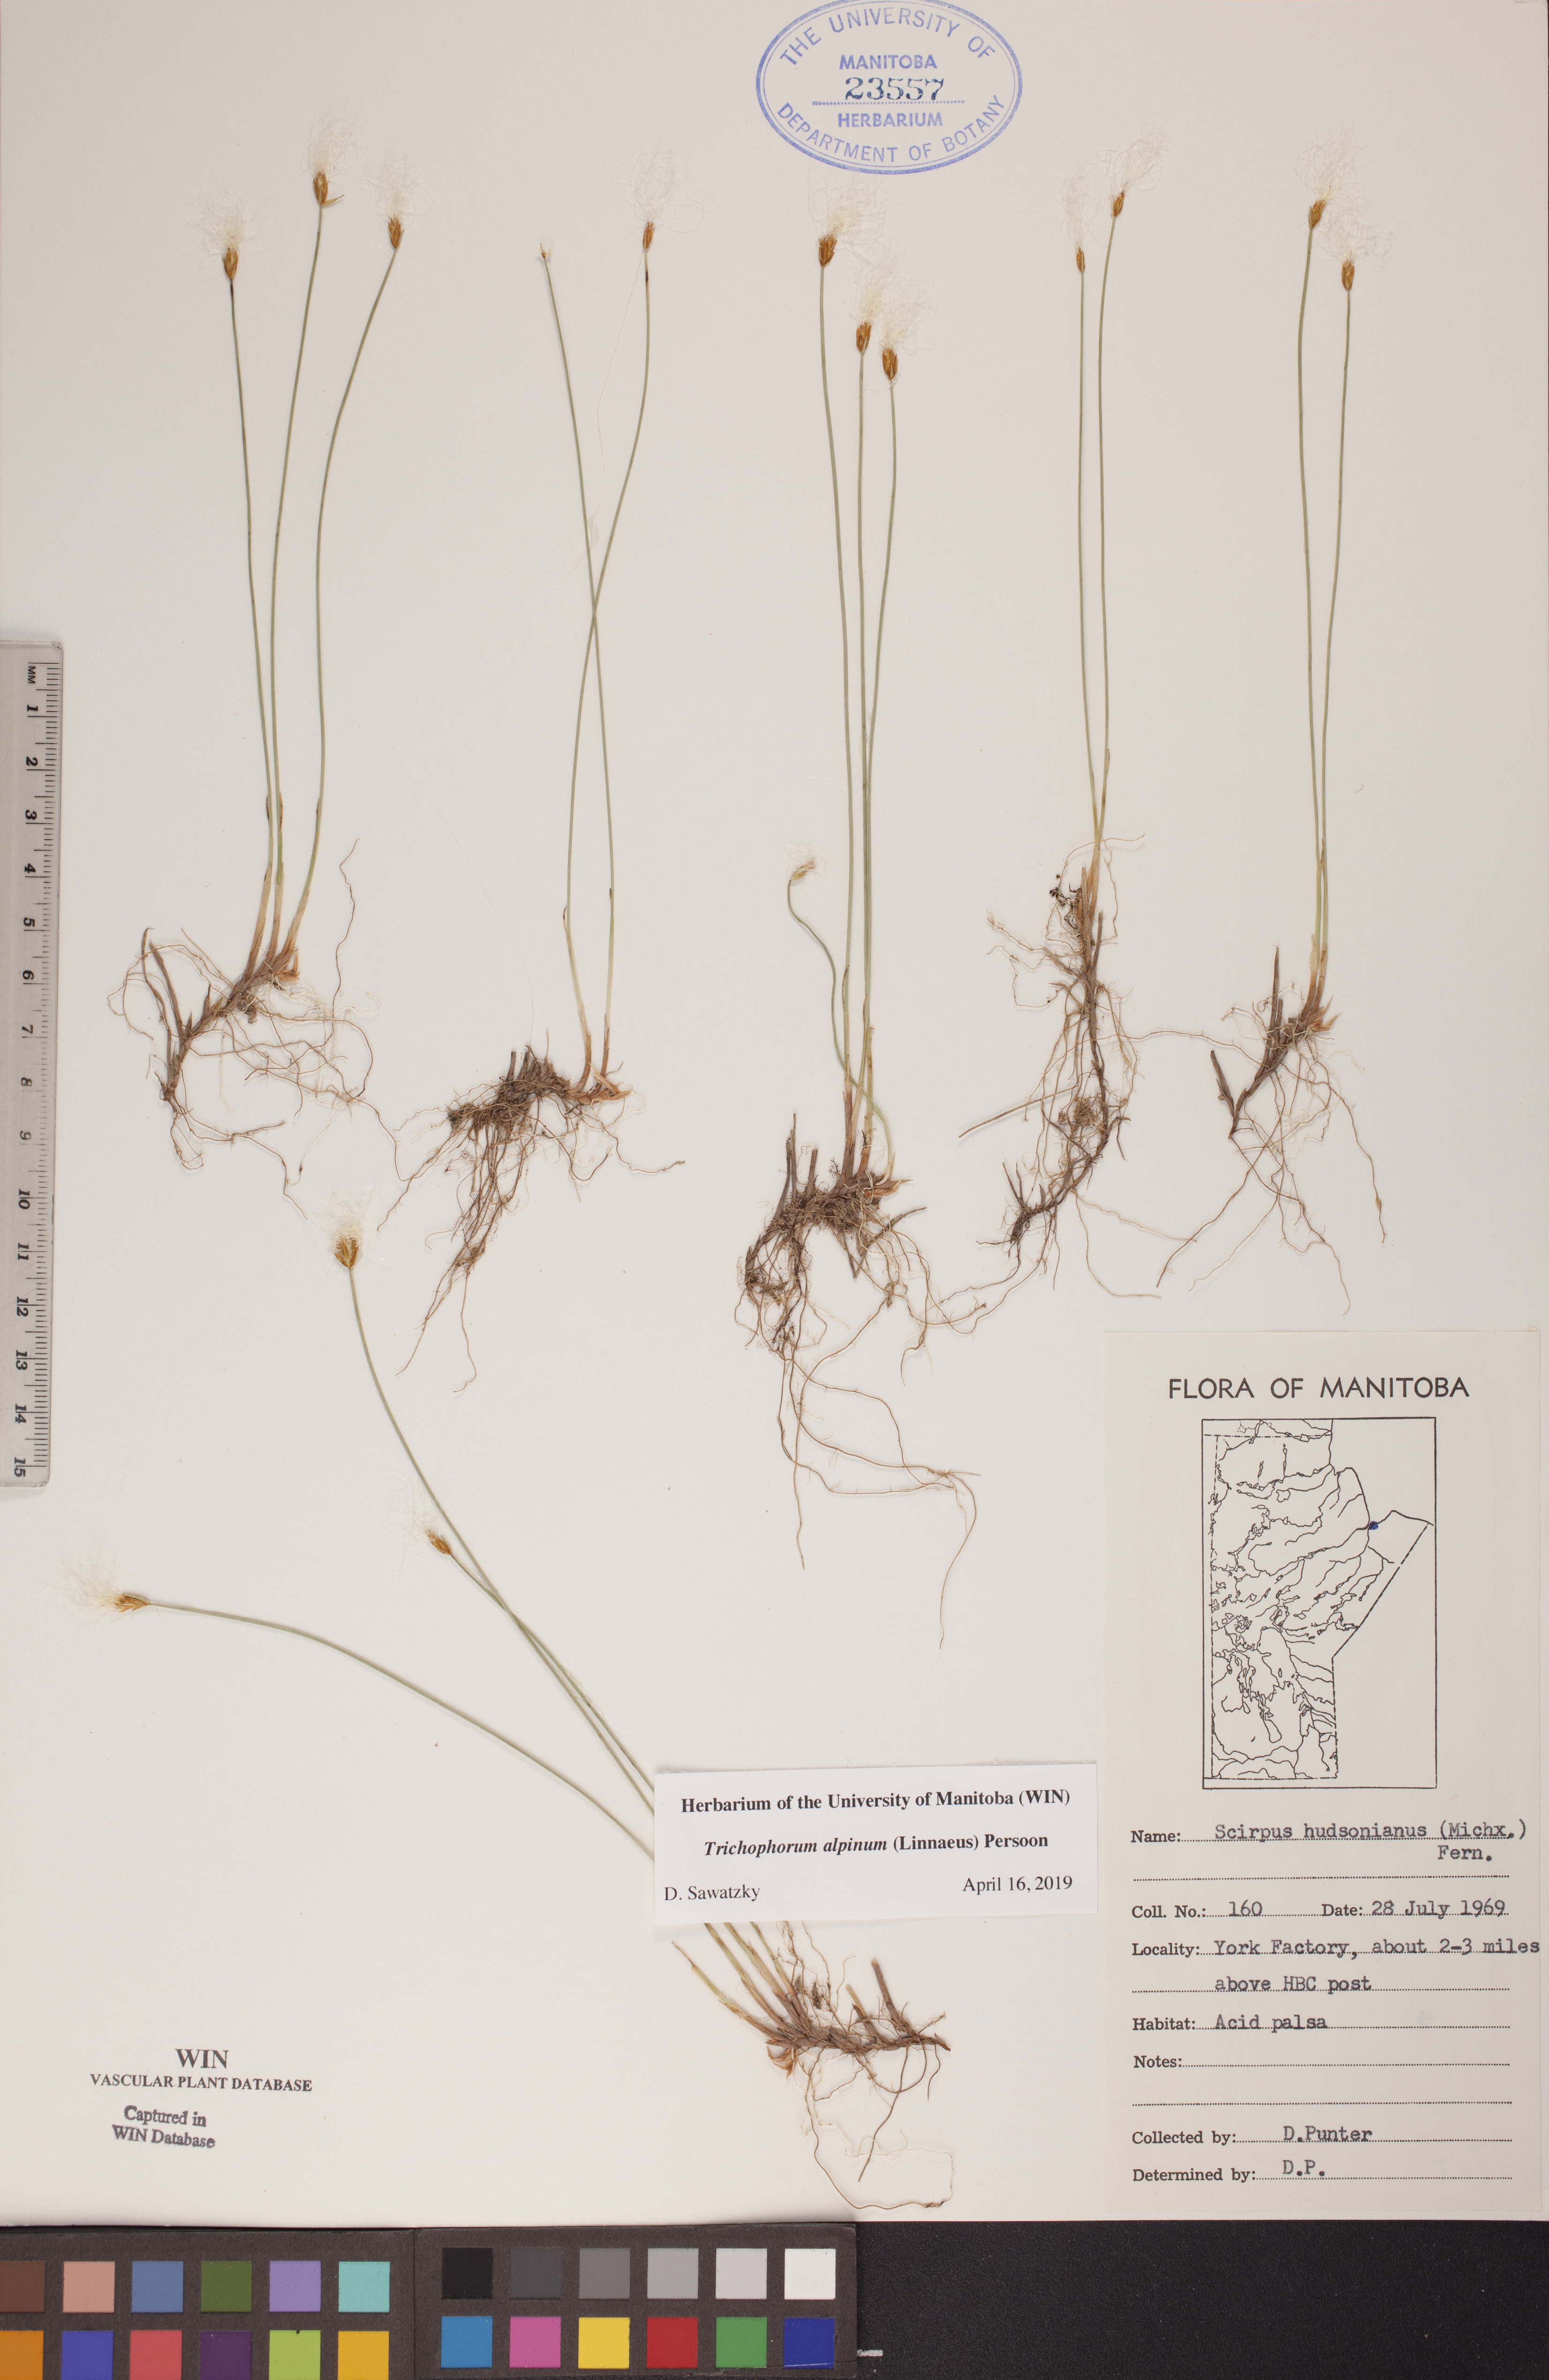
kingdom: Plantae
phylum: Tracheophyta
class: Liliopsida
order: Poales
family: Cyperaceae
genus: Trichophorum
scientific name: Trichophorum alpinum
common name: Alpine bulrush
